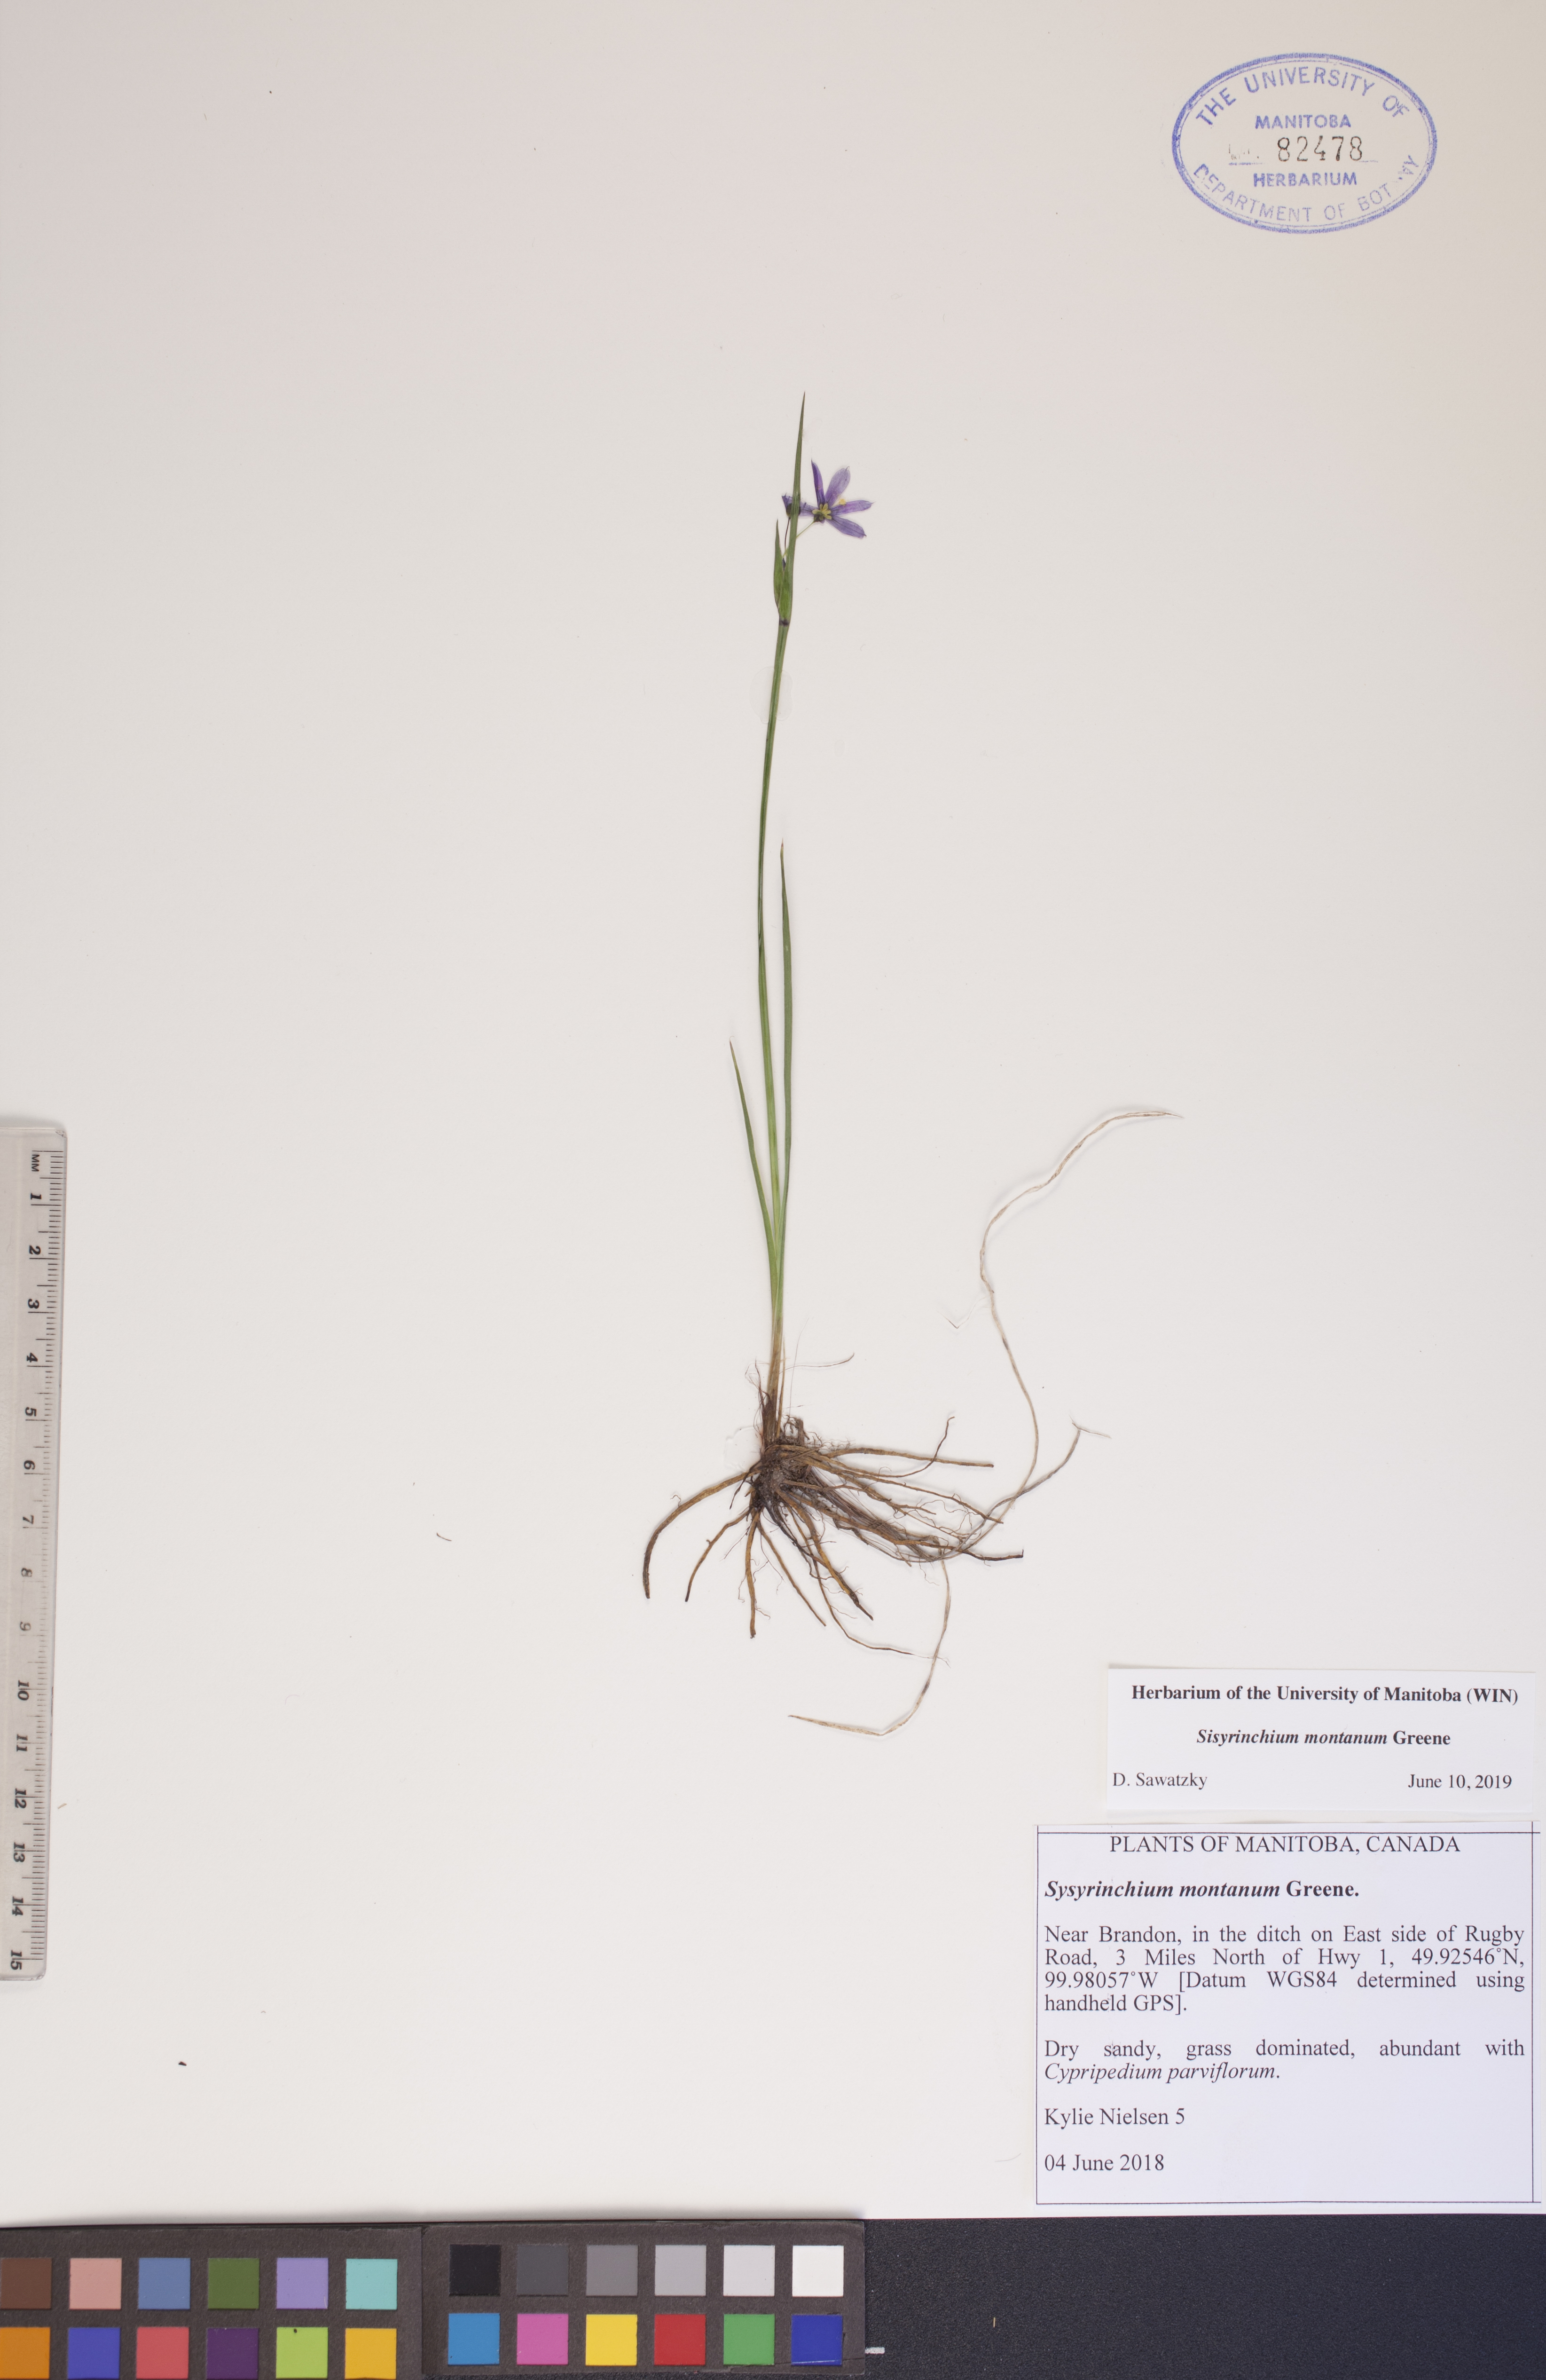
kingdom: Plantae
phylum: Tracheophyta
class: Liliopsida
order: Asparagales
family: Iridaceae
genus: Sisyrinchium
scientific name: Sisyrinchium montanum
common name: American blue-eyed-grass
